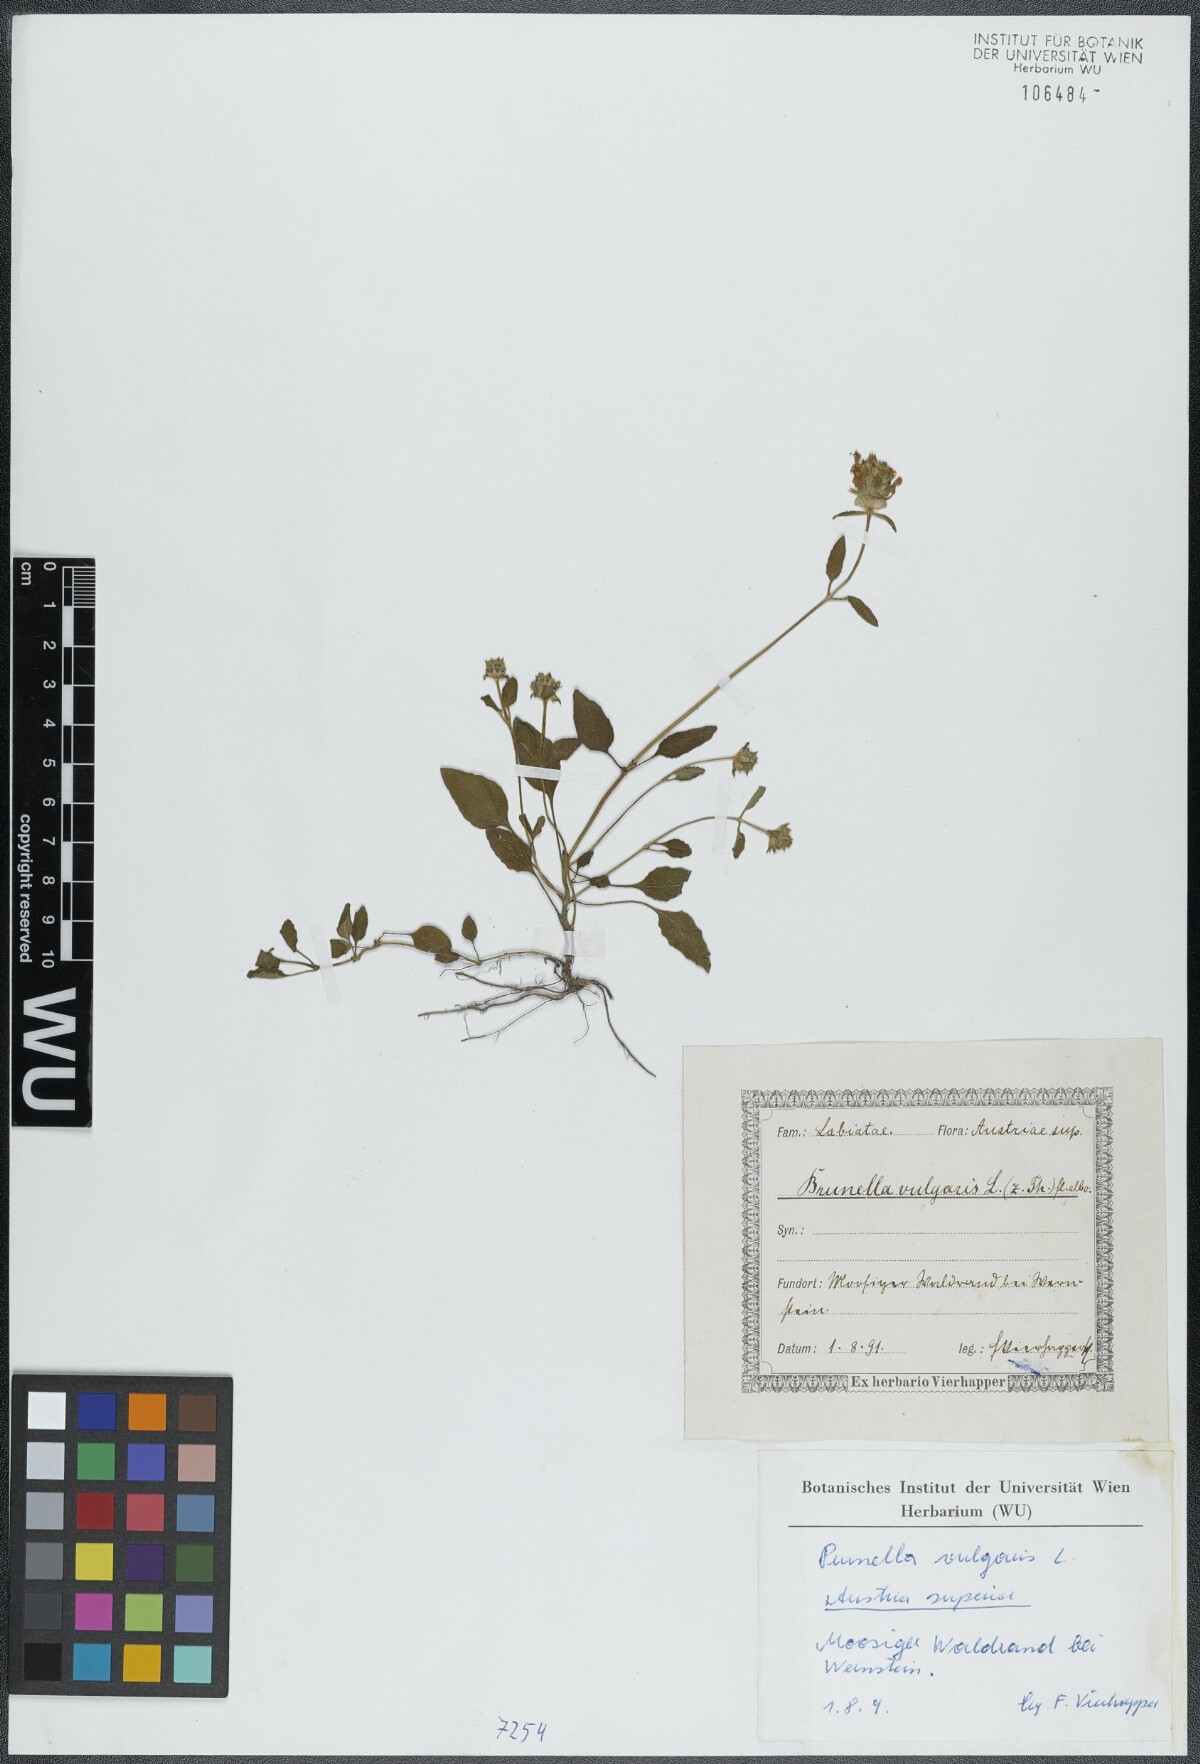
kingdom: Plantae
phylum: Tracheophyta
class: Magnoliopsida
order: Lamiales
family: Lamiaceae
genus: Prunella
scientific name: Prunella vulgaris
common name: Heal-all
